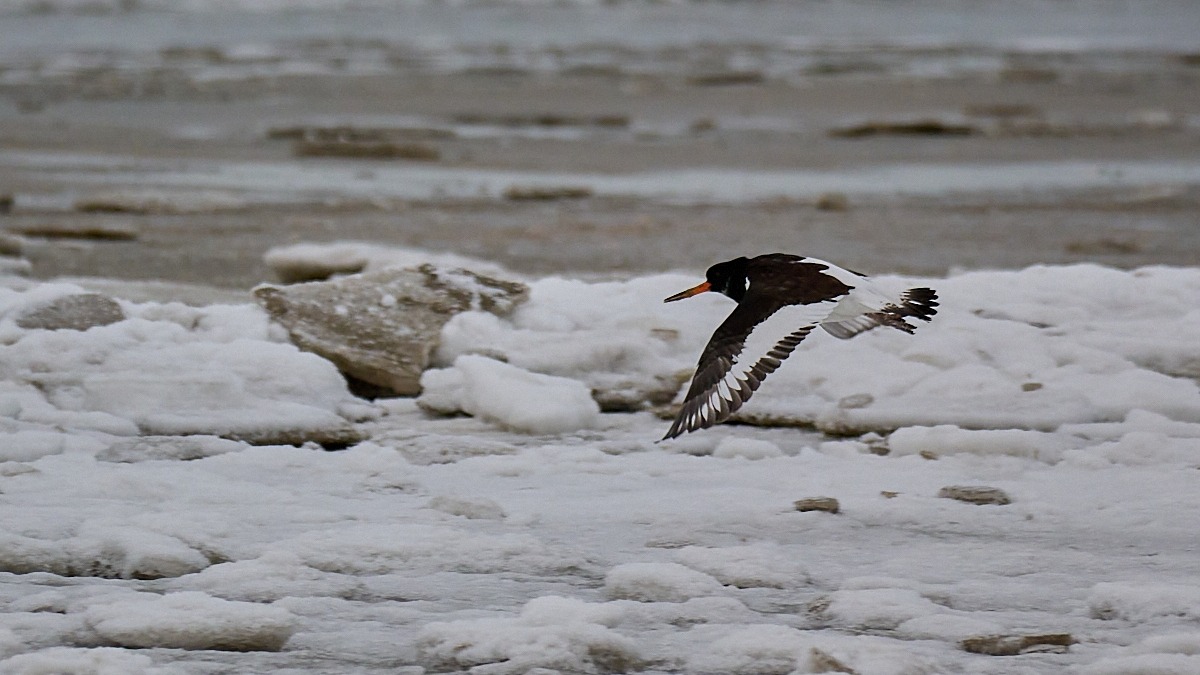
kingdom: Animalia
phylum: Chordata
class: Aves
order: Charadriiformes
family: Haematopodidae
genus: Haematopus
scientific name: Haematopus ostralegus
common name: Strandskade
